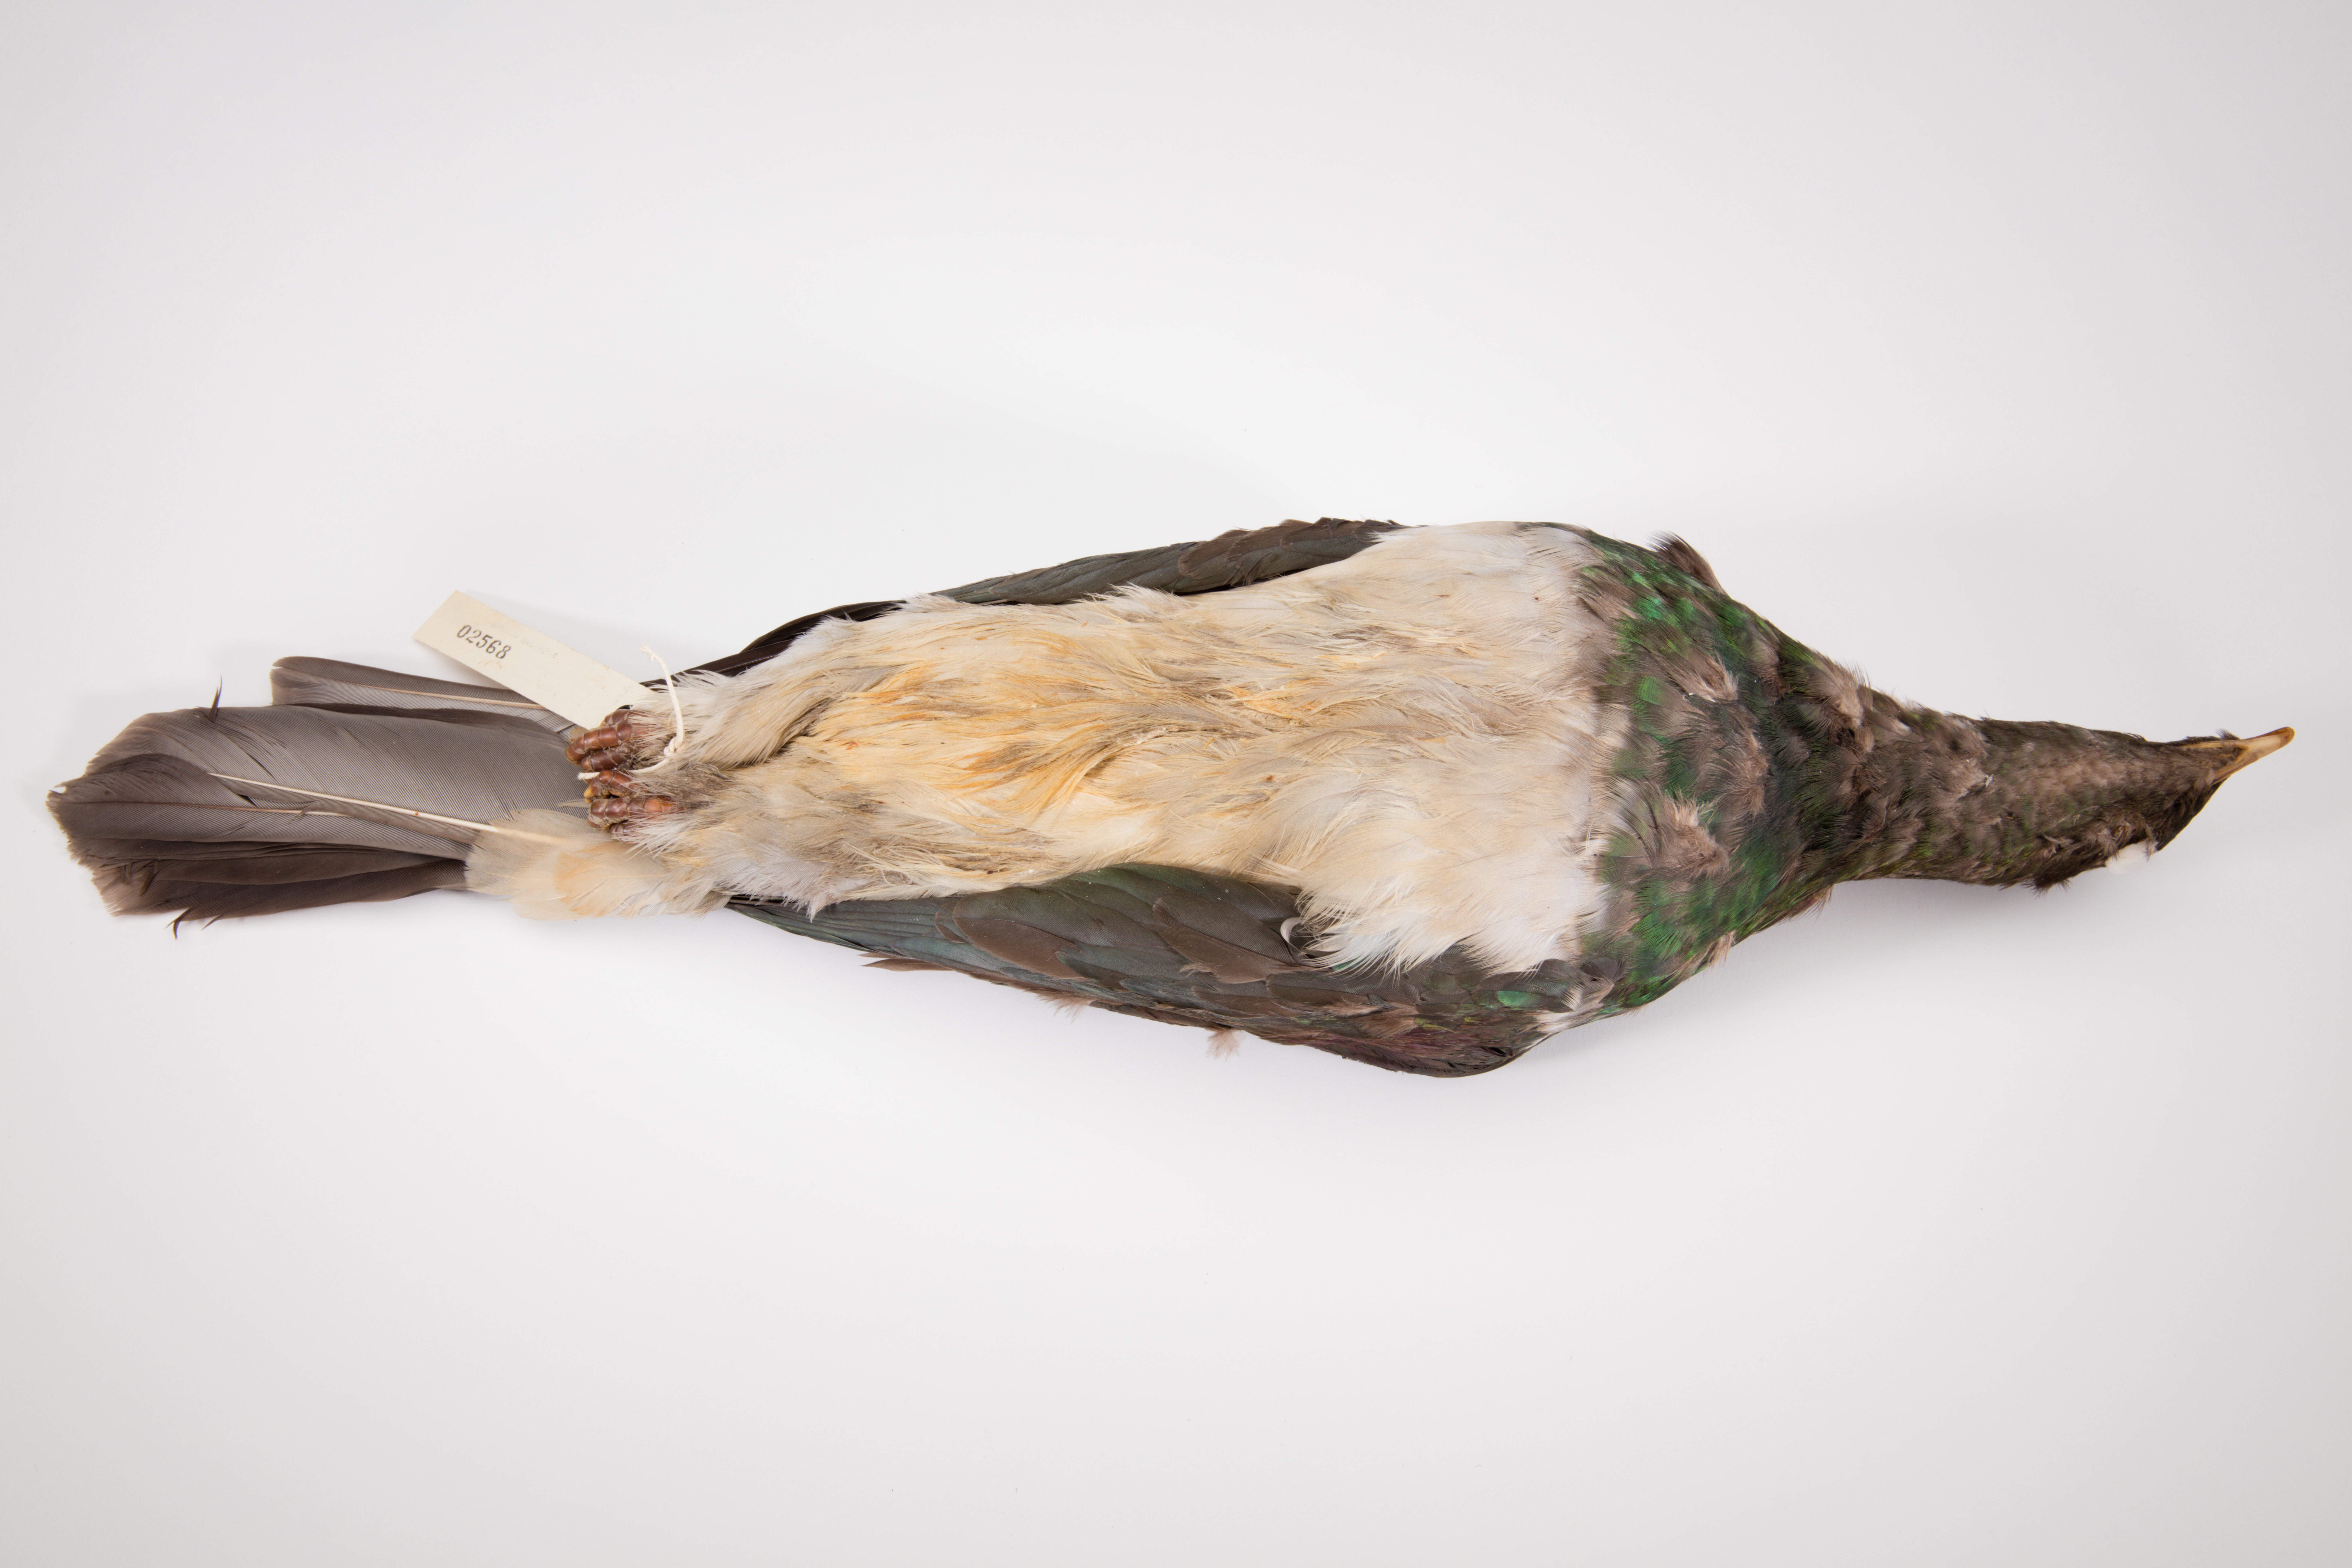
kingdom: Animalia
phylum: Chordata
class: Aves
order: Columbiformes
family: Columbidae
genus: Hemiphaga
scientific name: Hemiphaga novaeseelandiae
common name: New zealand pigeon
